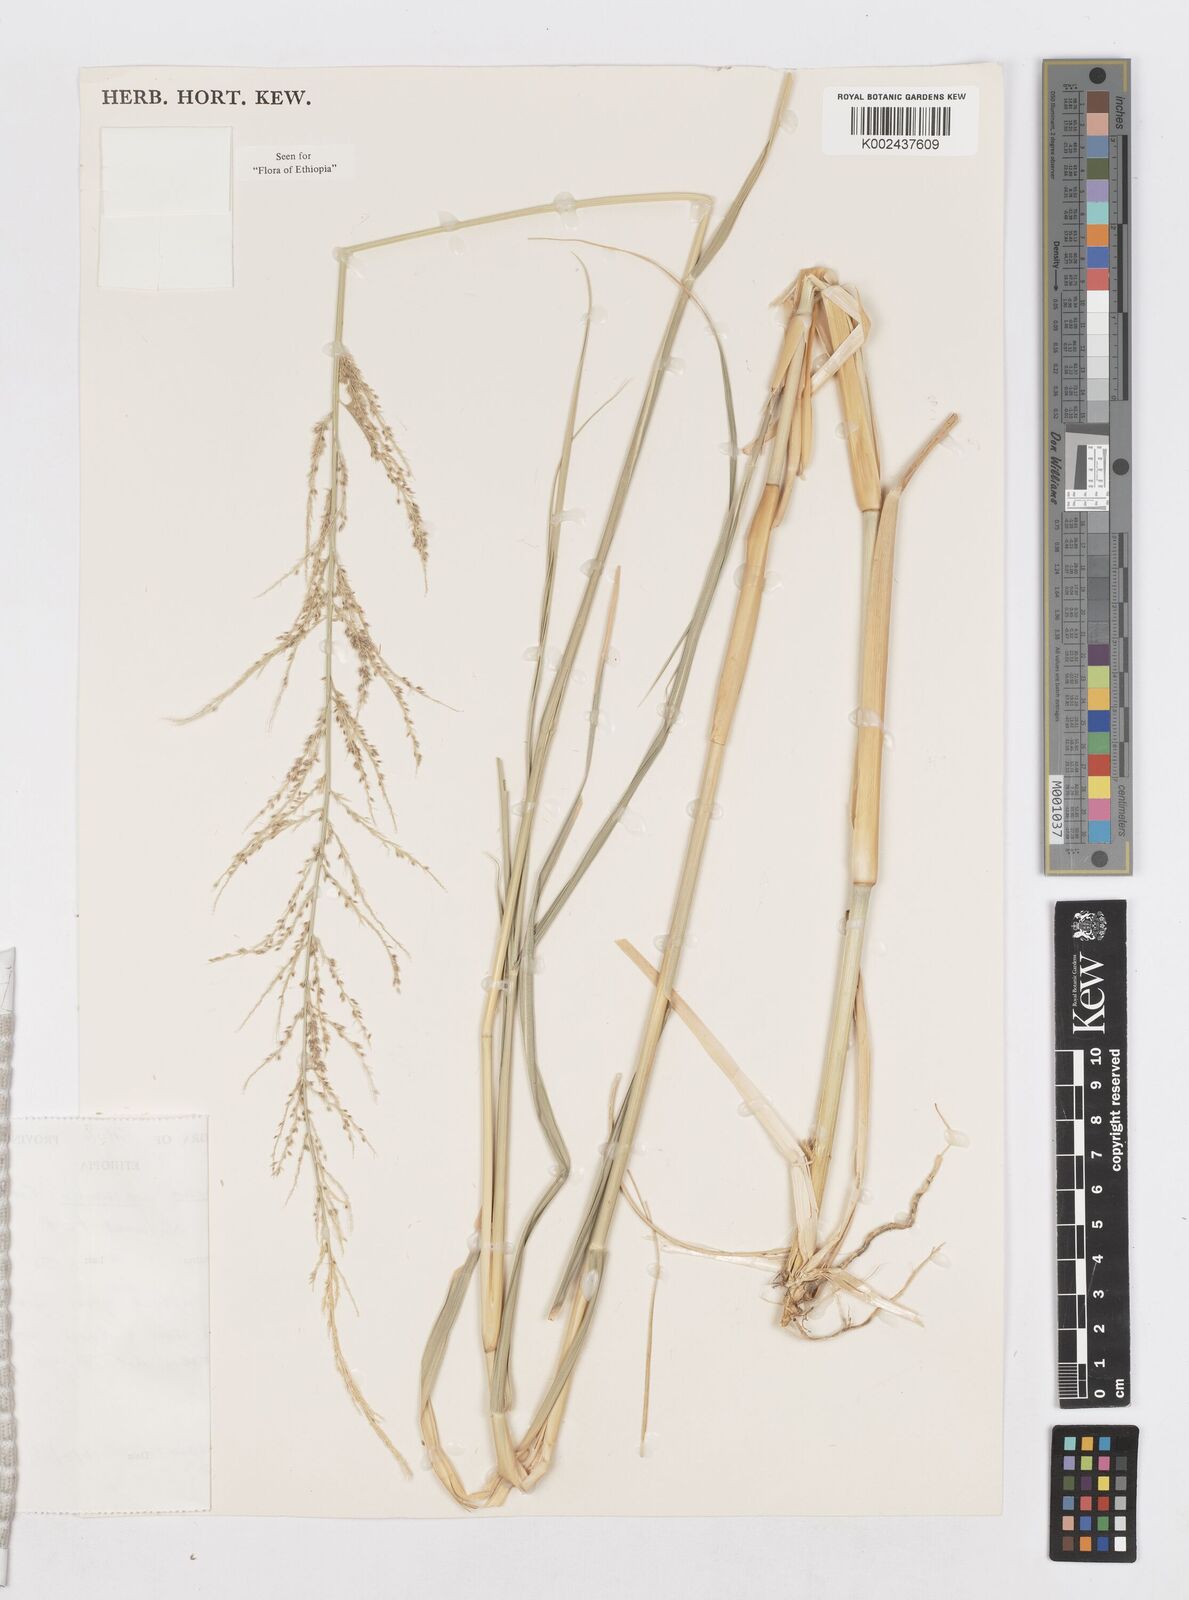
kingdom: Plantae
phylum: Tracheophyta
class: Liliopsida
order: Poales
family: Poaceae
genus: Sporobolus
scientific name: Sporobolus consimilis
